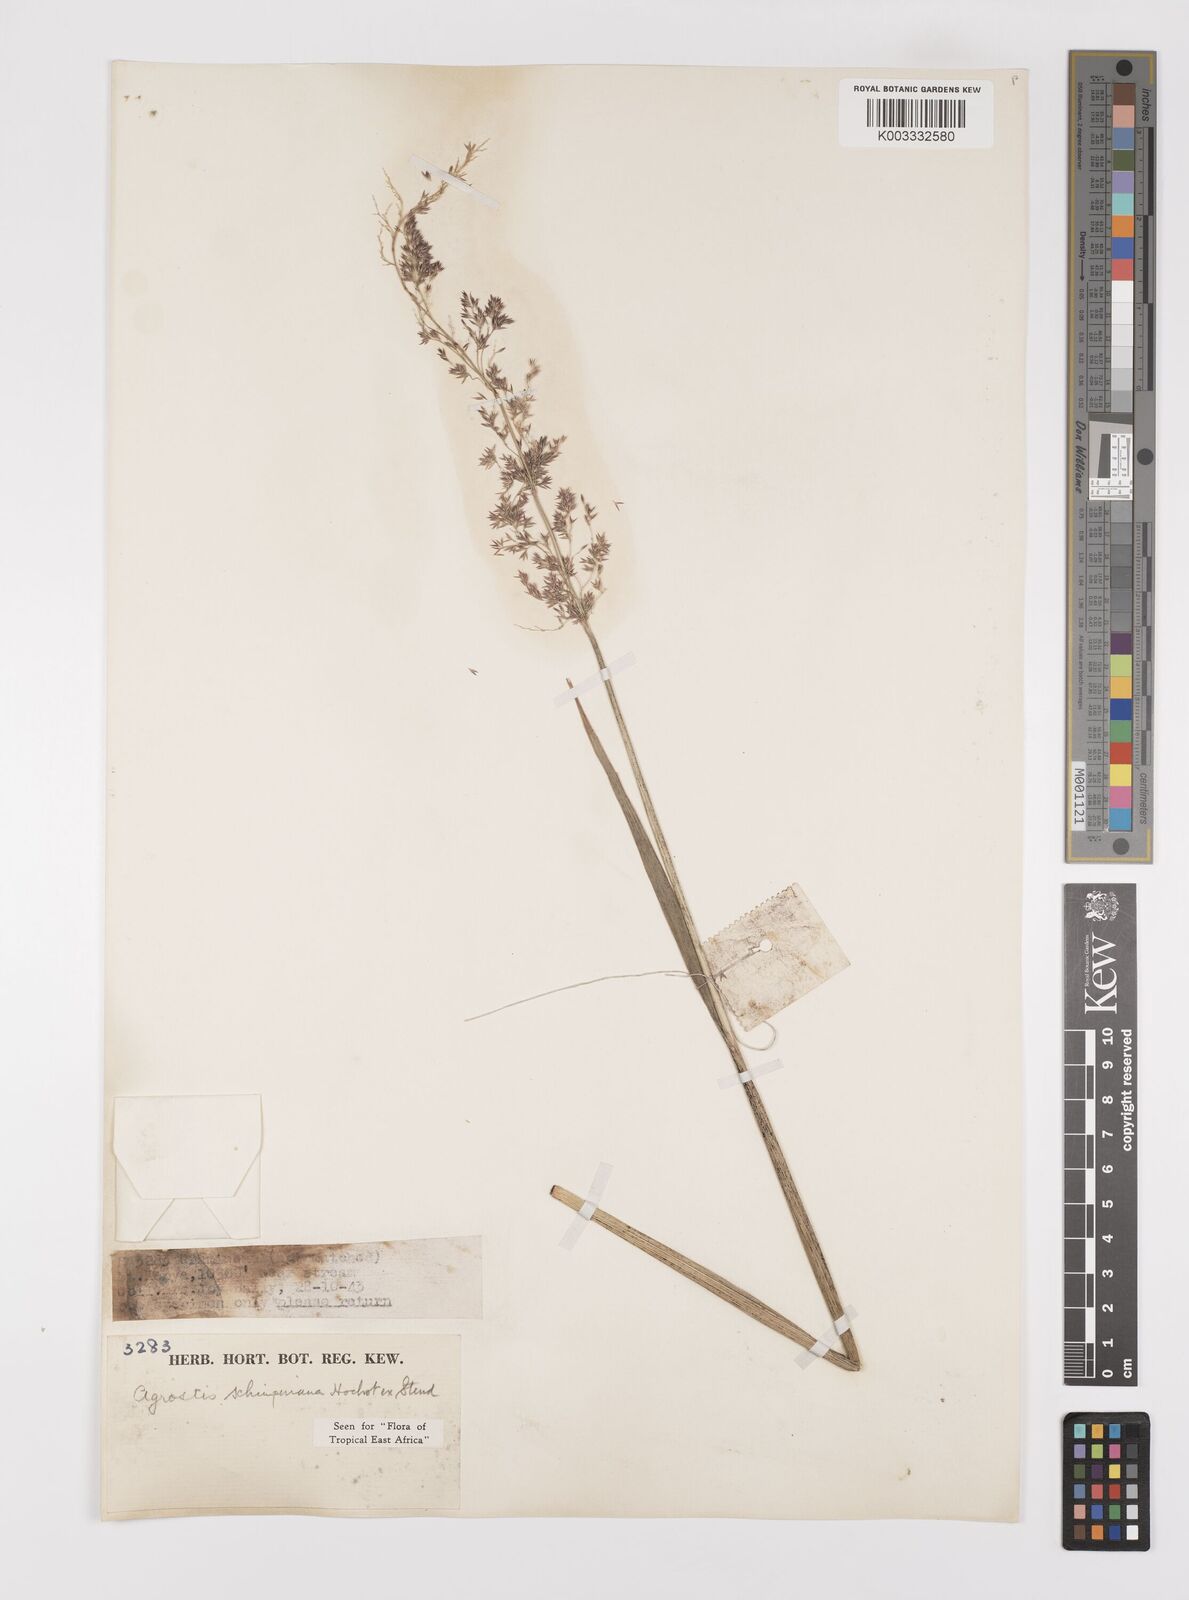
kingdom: Plantae
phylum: Tracheophyta
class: Liliopsida
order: Poales
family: Poaceae
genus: Polypogon
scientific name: Polypogon schimperianus
